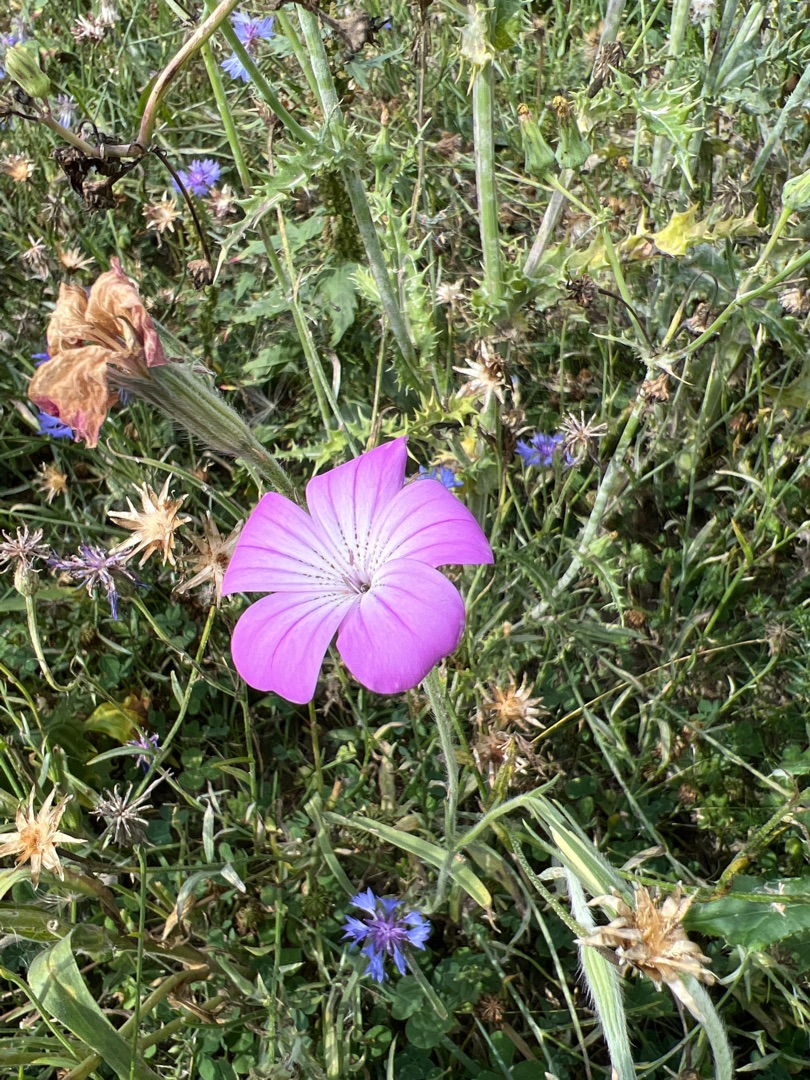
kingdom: Plantae
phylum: Tracheophyta
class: Magnoliopsida
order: Caryophyllales
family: Caryophyllaceae
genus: Agrostemma
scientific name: Agrostemma brachyloba
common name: Sommer-klinte
